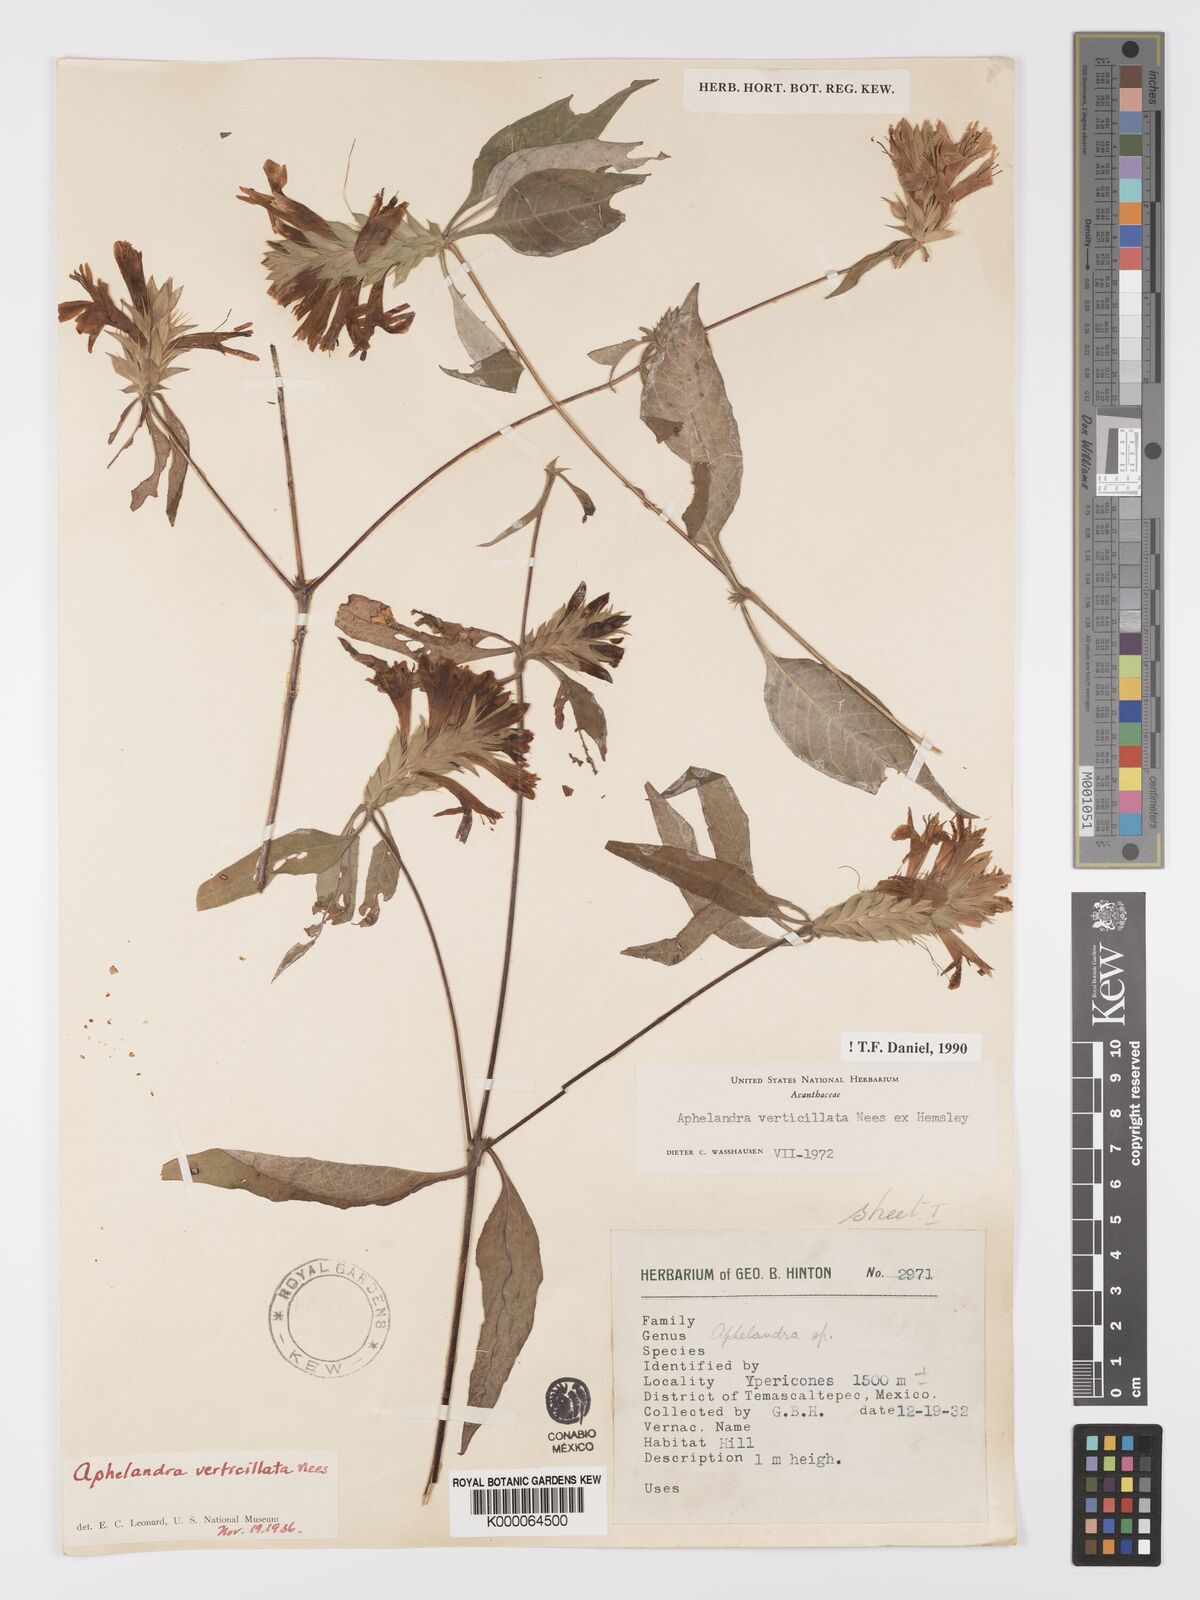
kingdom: Plantae
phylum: Tracheophyta
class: Magnoliopsida
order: Lamiales
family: Acanthaceae
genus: Holographis
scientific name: Holographis haenkeana
